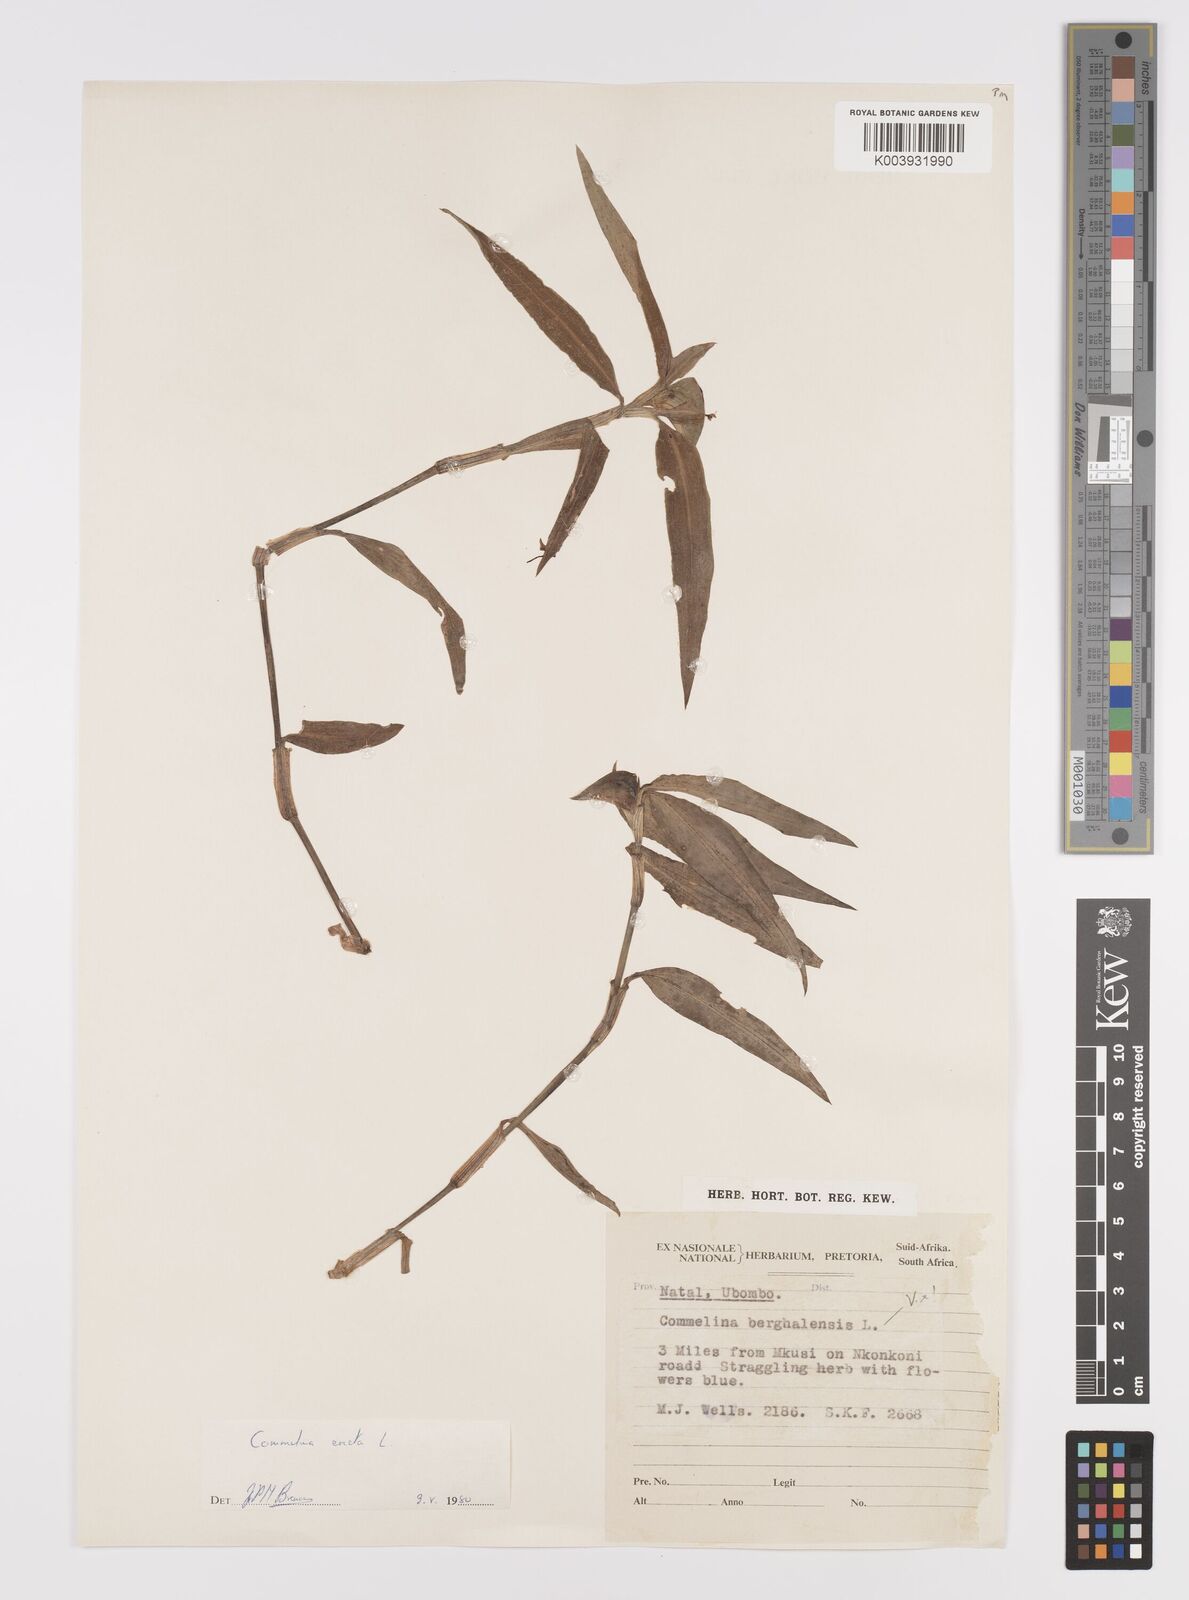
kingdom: Plantae
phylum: Tracheophyta
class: Liliopsida
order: Commelinales
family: Commelinaceae
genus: Commelina
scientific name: Commelina erecta
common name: Blousel blommetjie
